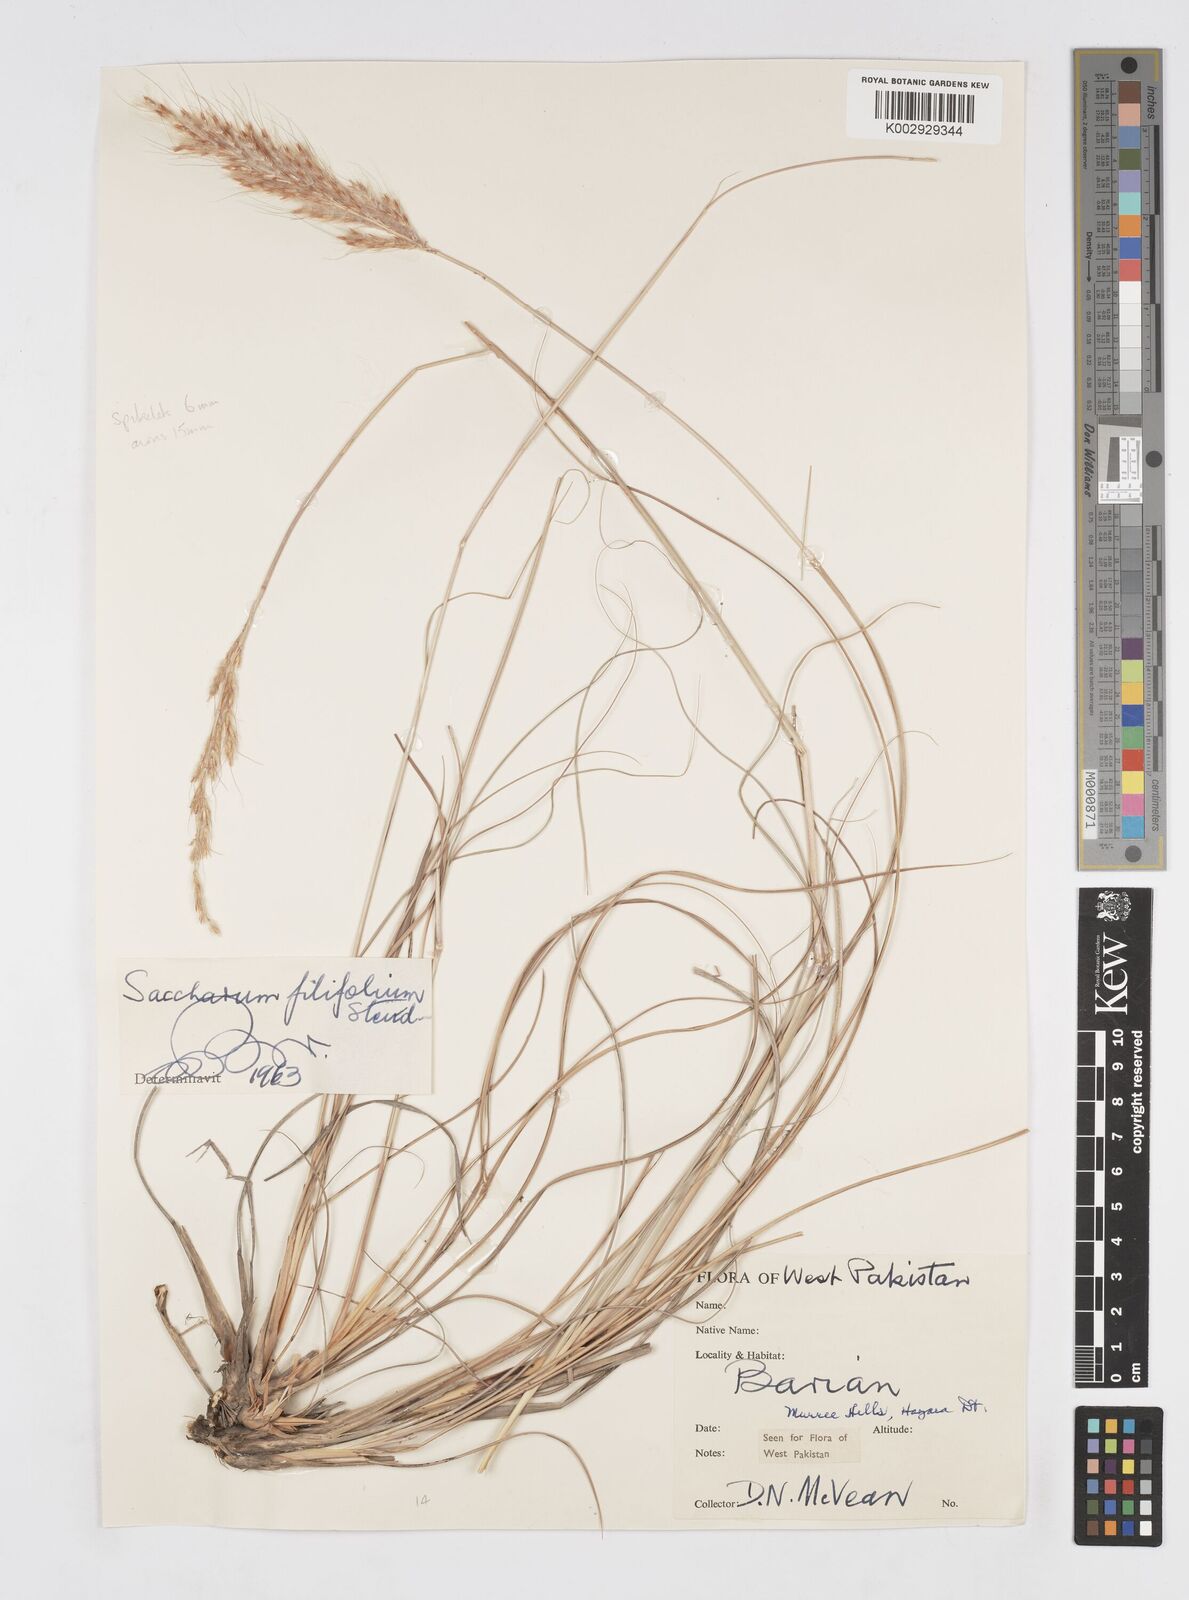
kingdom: Plantae
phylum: Tracheophyta
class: Liliopsida
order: Poales
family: Poaceae
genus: Saccharum
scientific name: Saccharum filifolium
